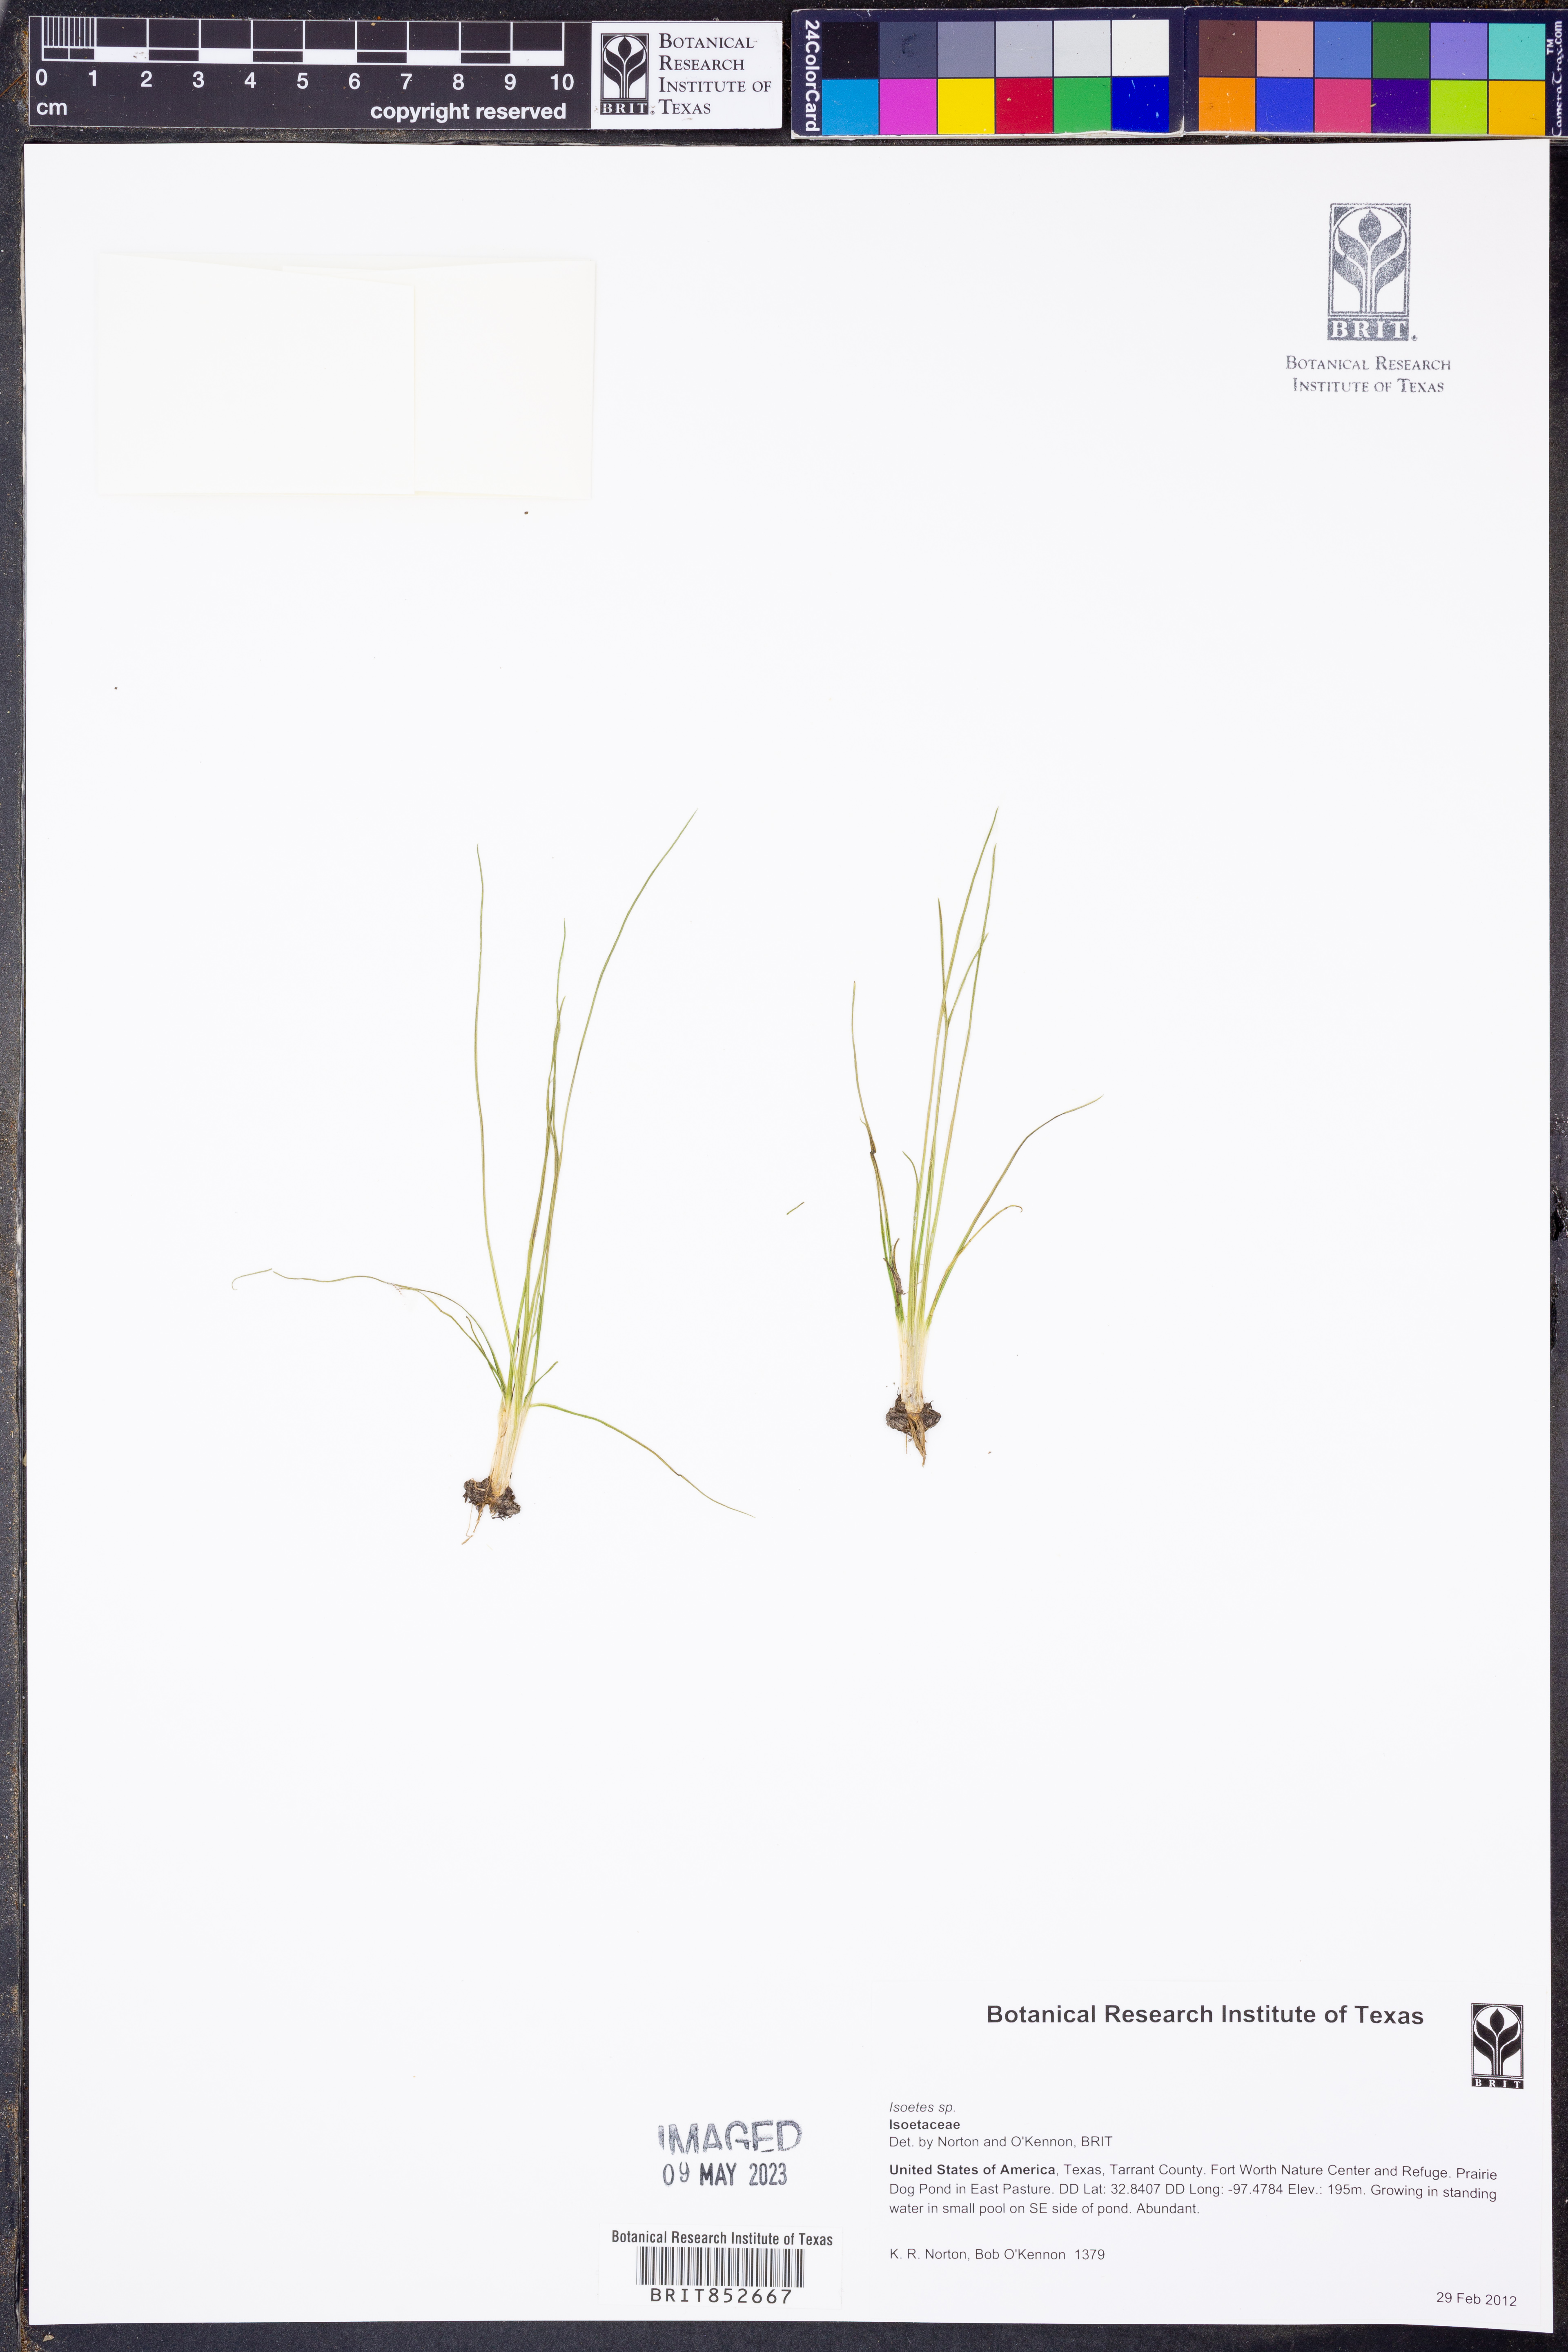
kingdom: Plantae
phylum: Tracheophyta
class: Lycopodiopsida
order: Isoetales
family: Isoetaceae
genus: Isoetes
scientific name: Isoetes
